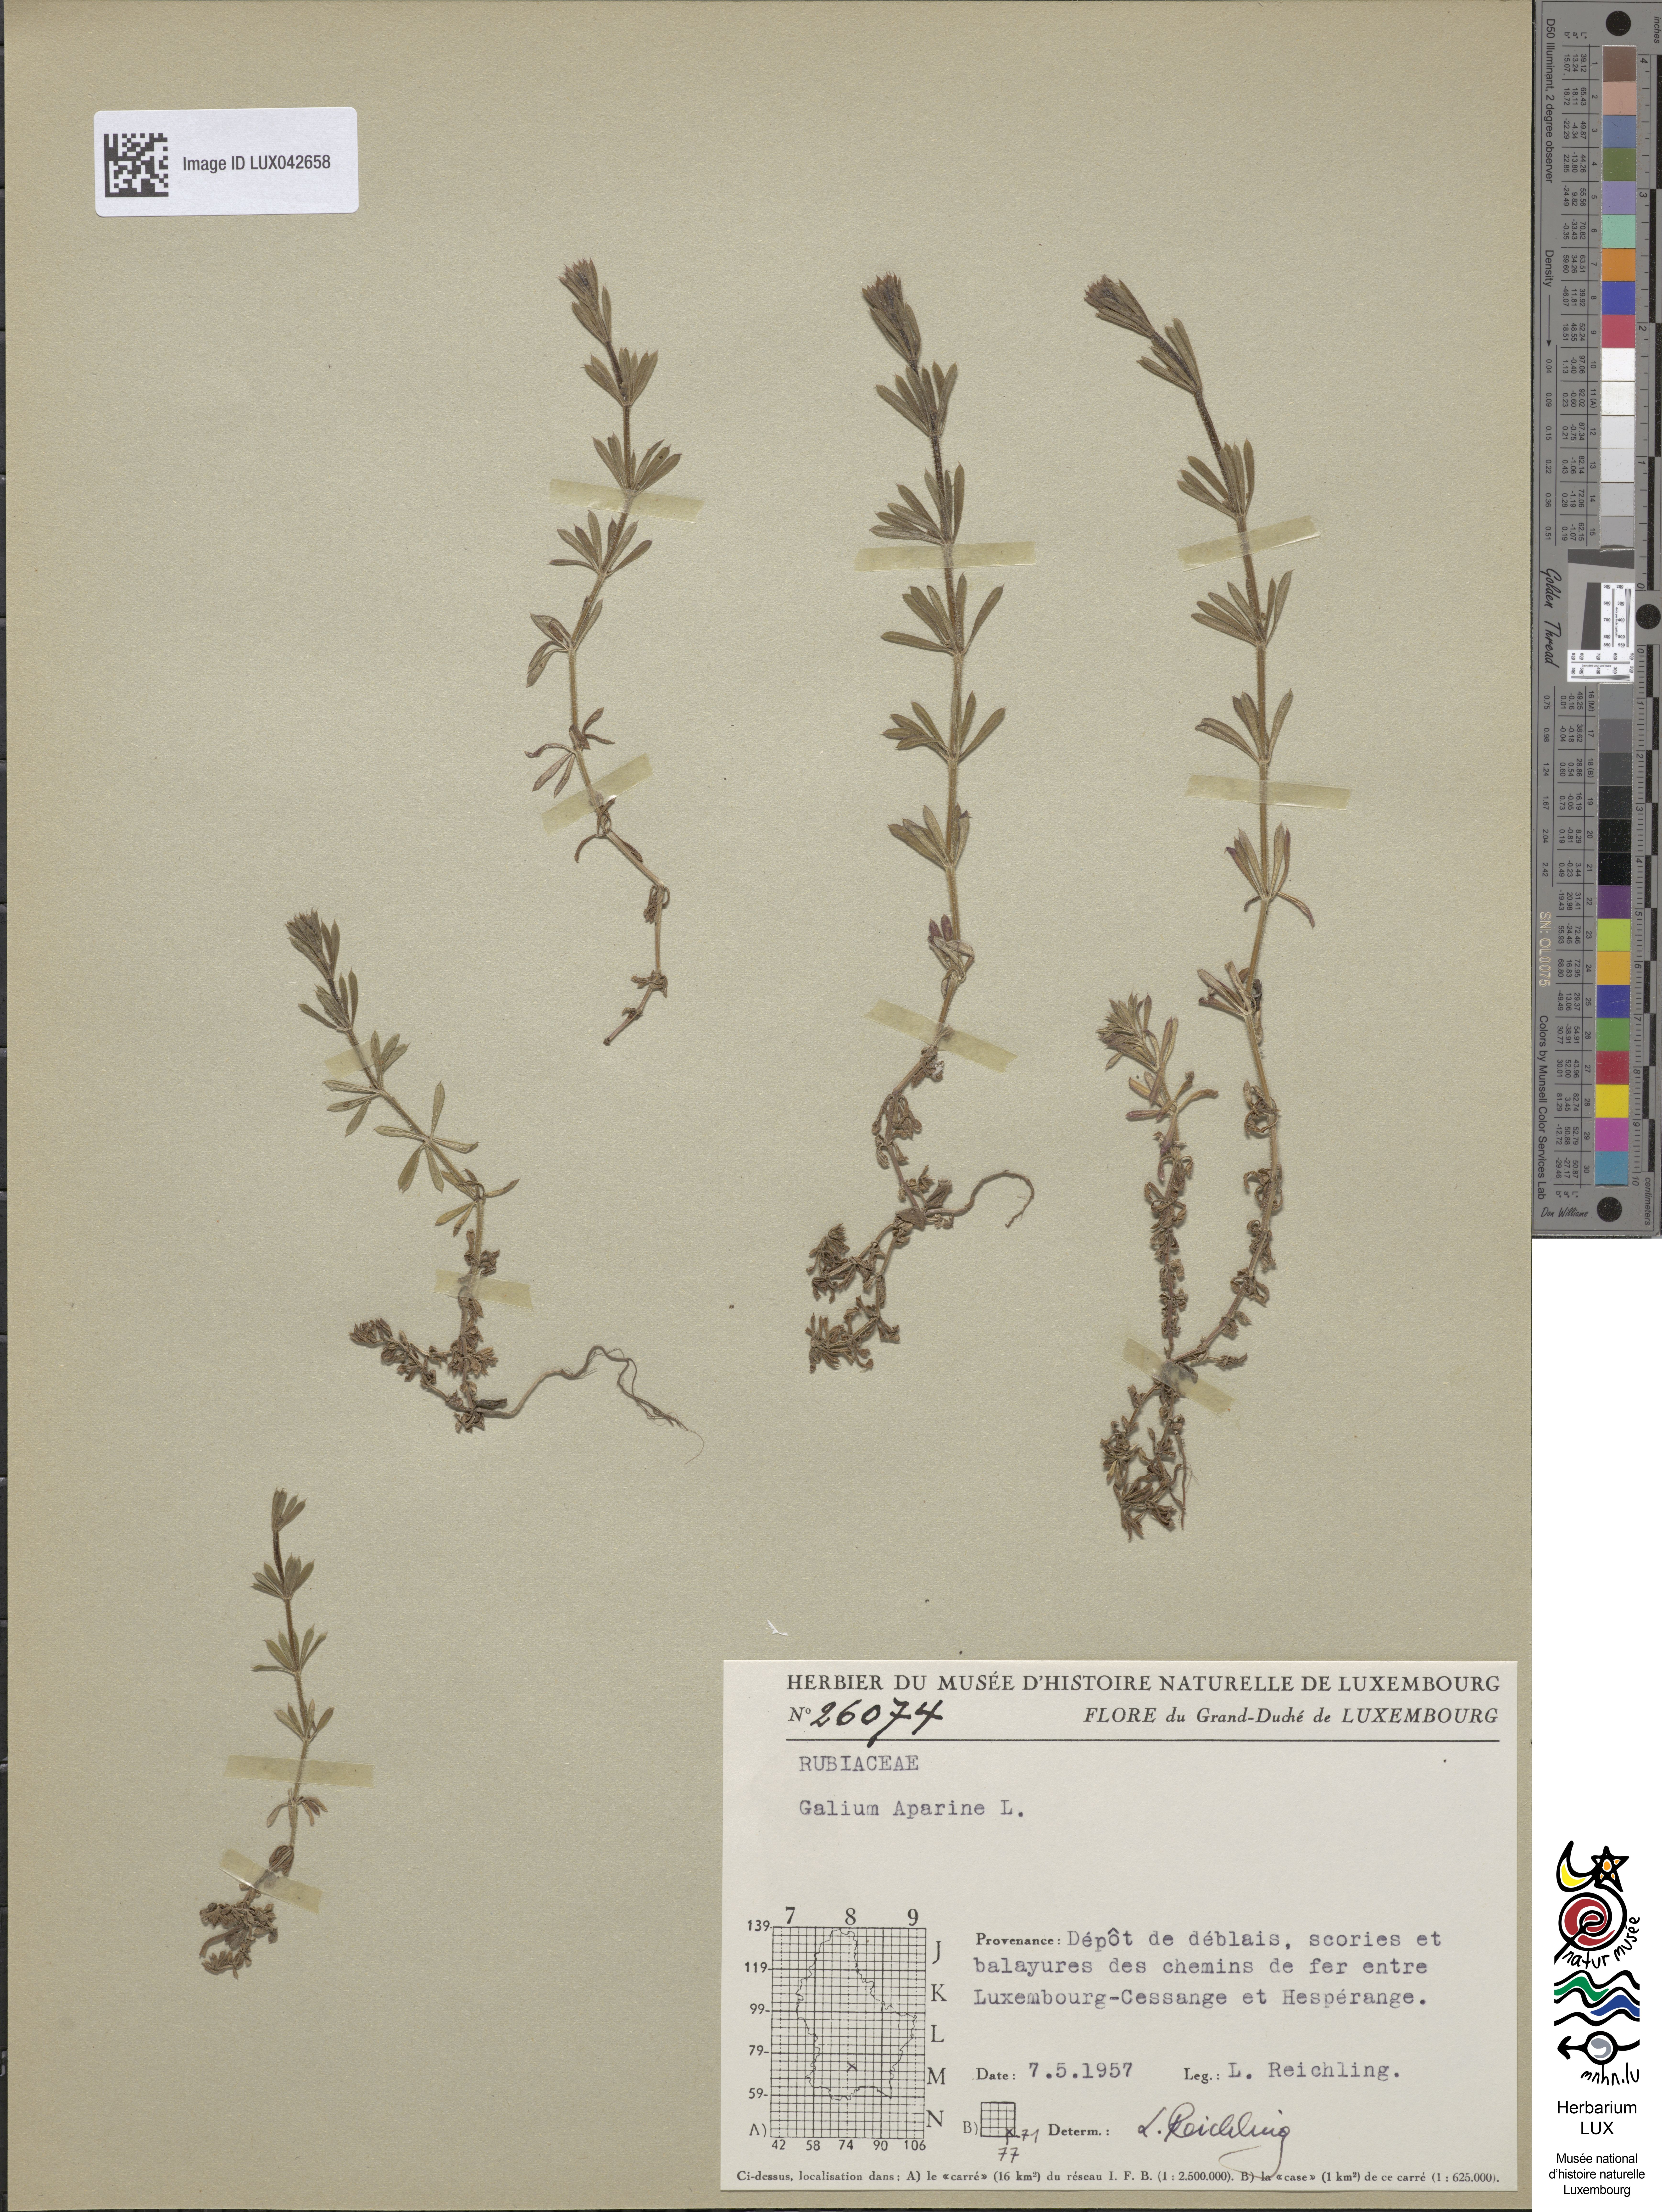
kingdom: Plantae
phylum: Tracheophyta
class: Magnoliopsida
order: Gentianales
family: Rubiaceae
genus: Galium
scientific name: Galium aparine
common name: Cleavers
